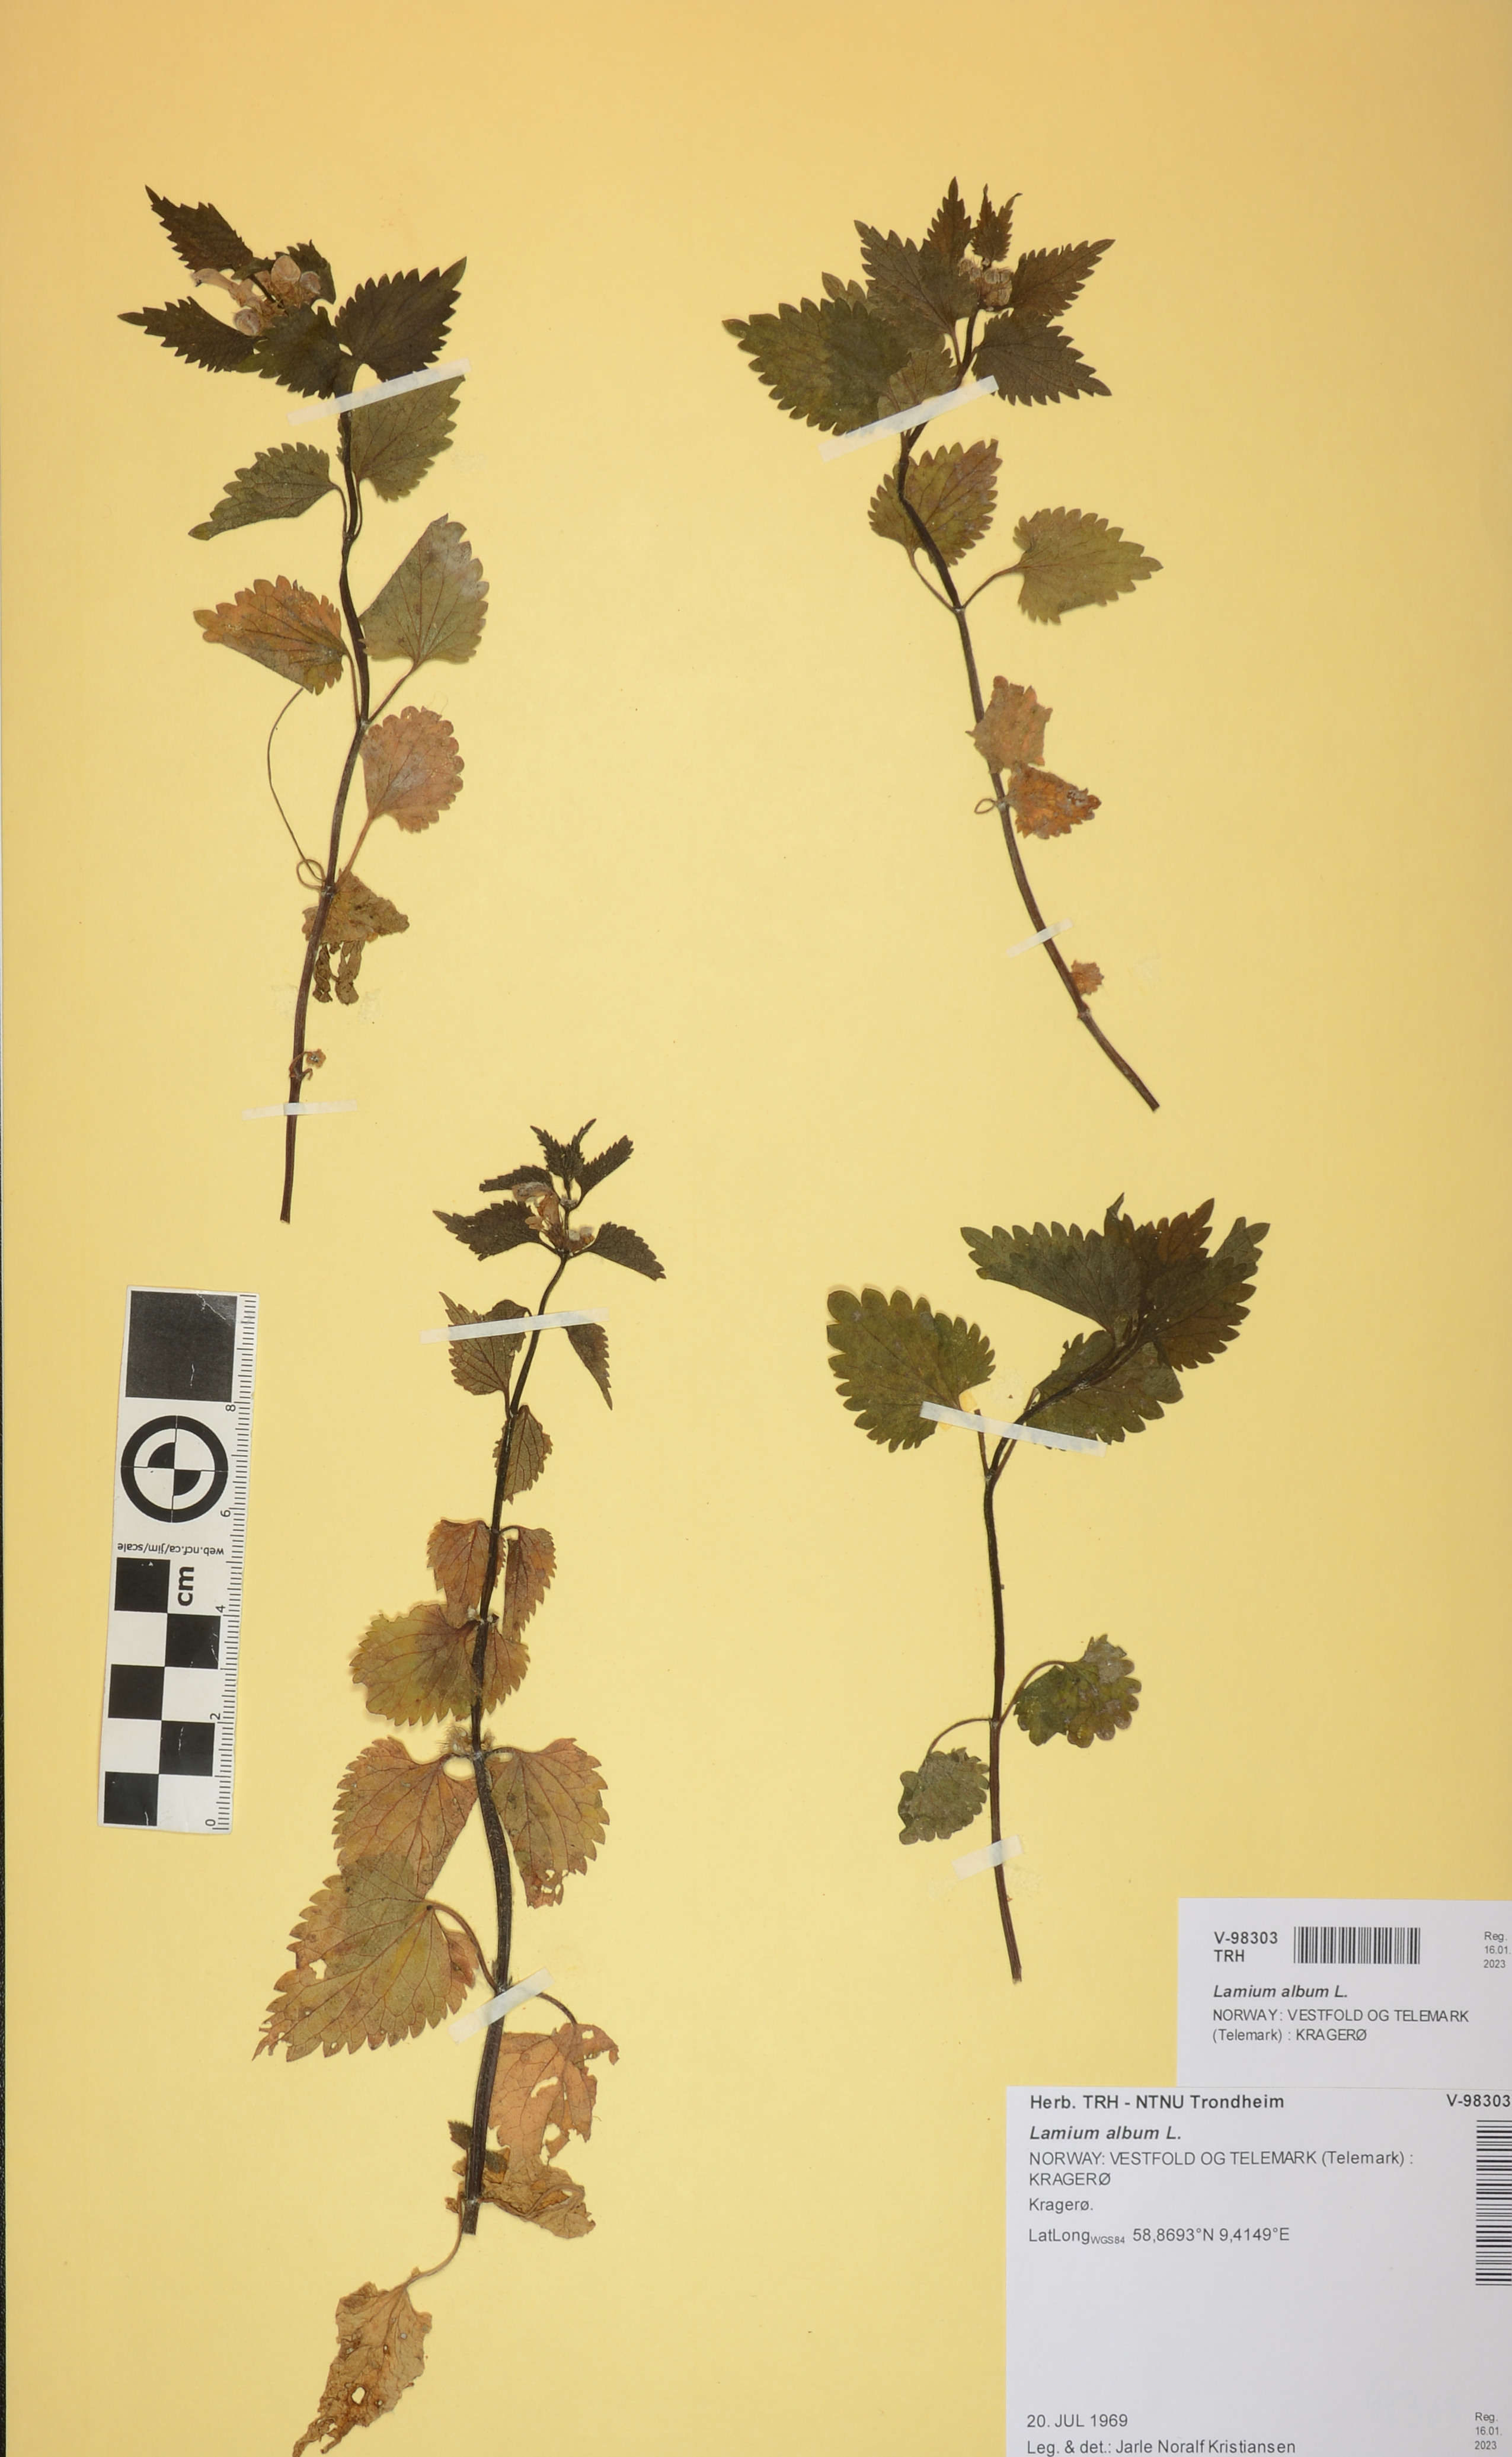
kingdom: Plantae
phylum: Tracheophyta
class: Magnoliopsida
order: Lamiales
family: Lamiaceae
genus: Lamium
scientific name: Lamium album
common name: White dead-nettle
